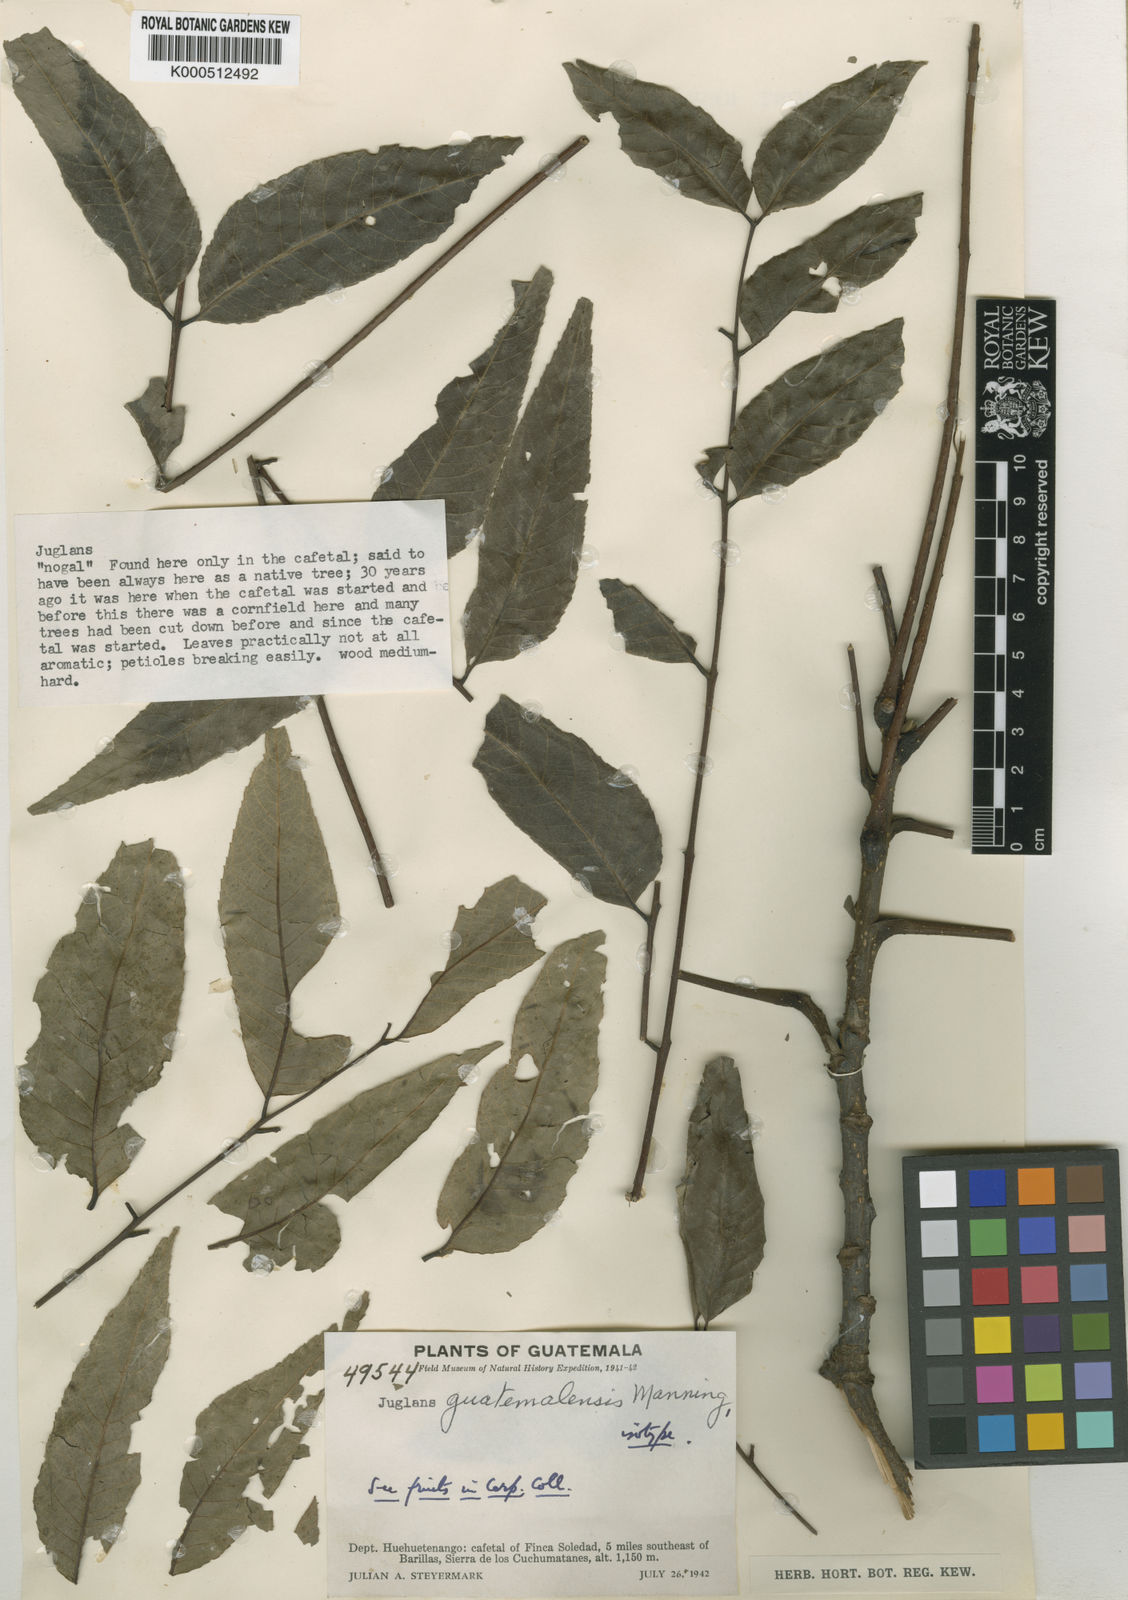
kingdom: Plantae
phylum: Tracheophyta
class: Magnoliopsida
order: Fagales
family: Juglandaceae
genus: Juglans
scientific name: Juglans olanchana
